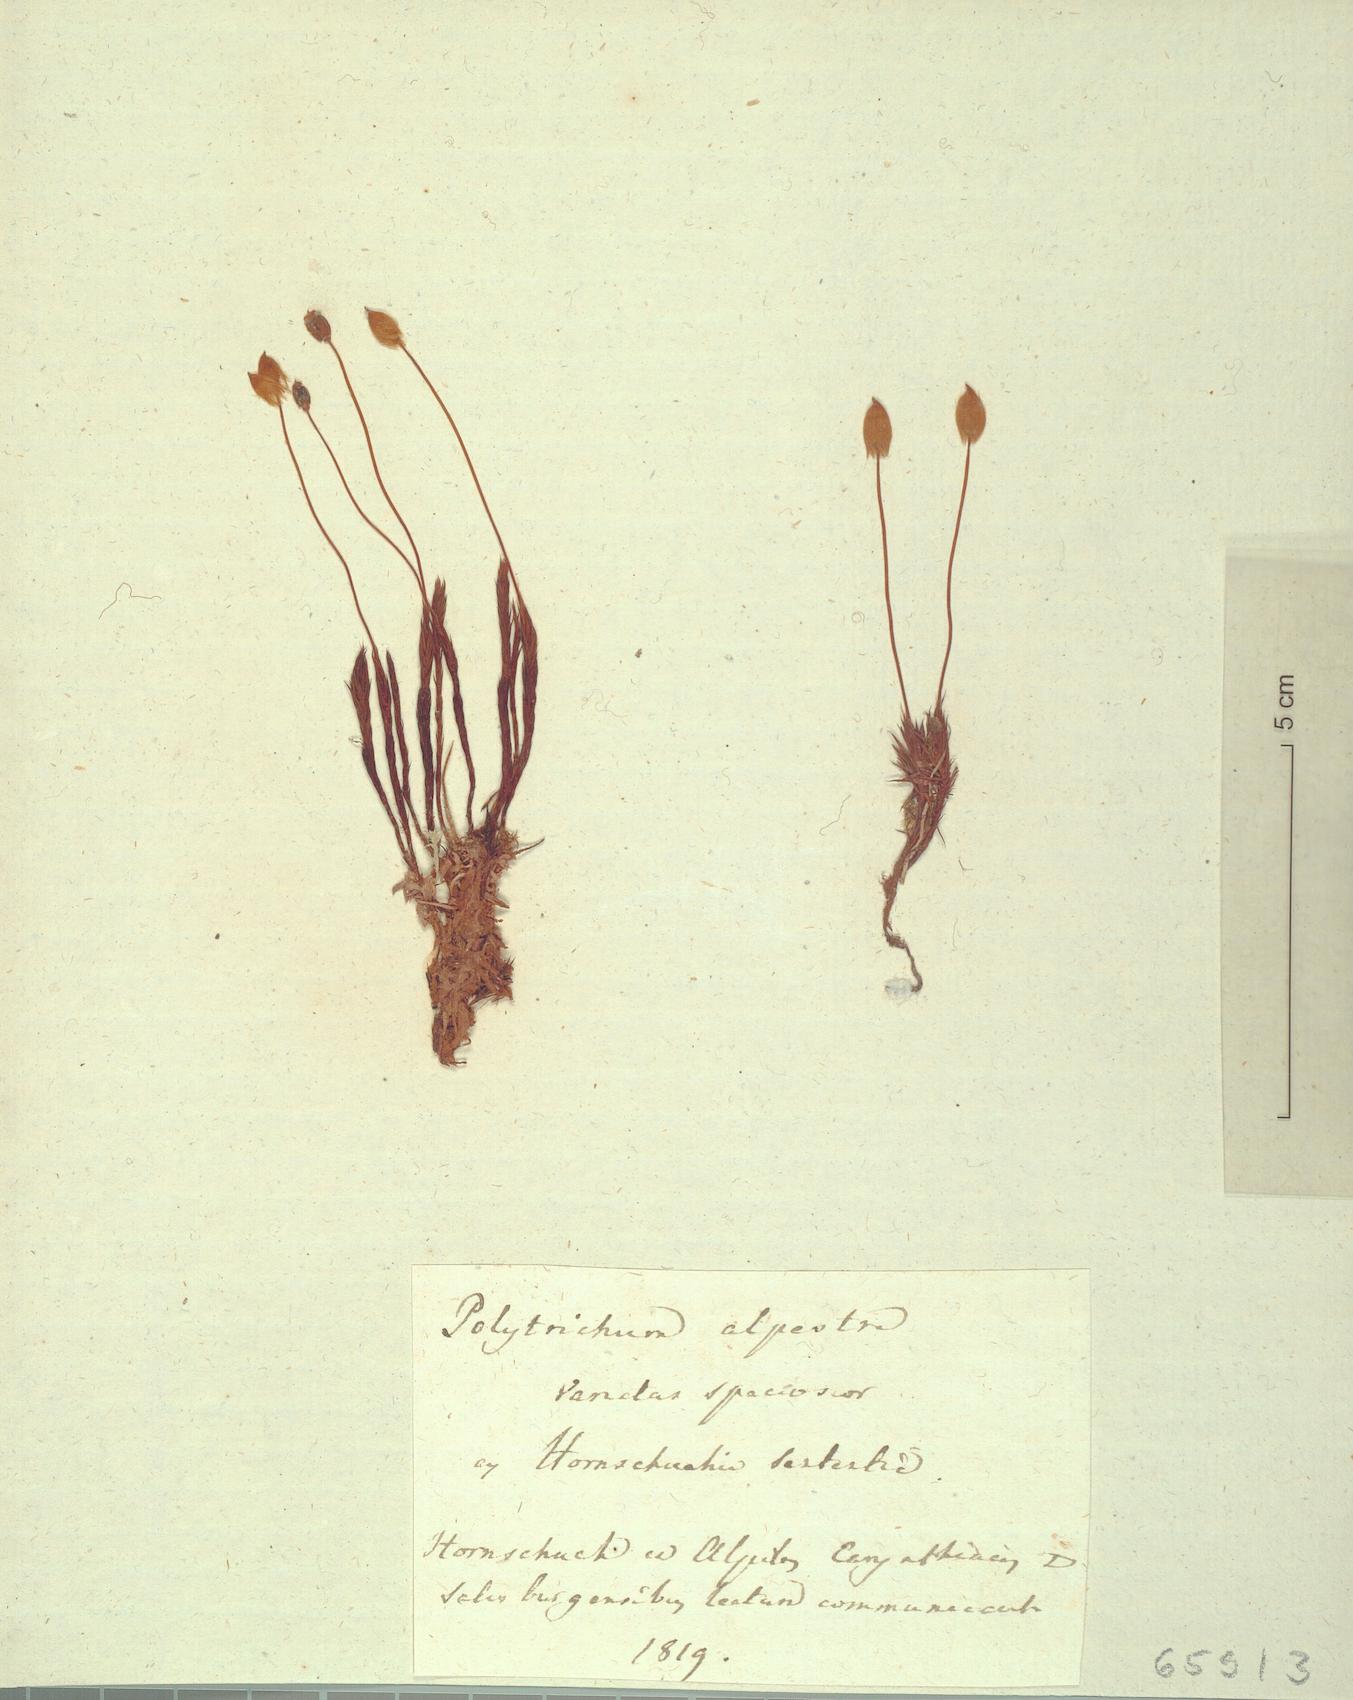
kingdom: Plantae
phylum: Bryophyta
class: Polytrichopsida
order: Polytrichales
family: Polytrichaceae
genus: Polytrichum
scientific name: Polytrichum strictum
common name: Bog haircap moss
